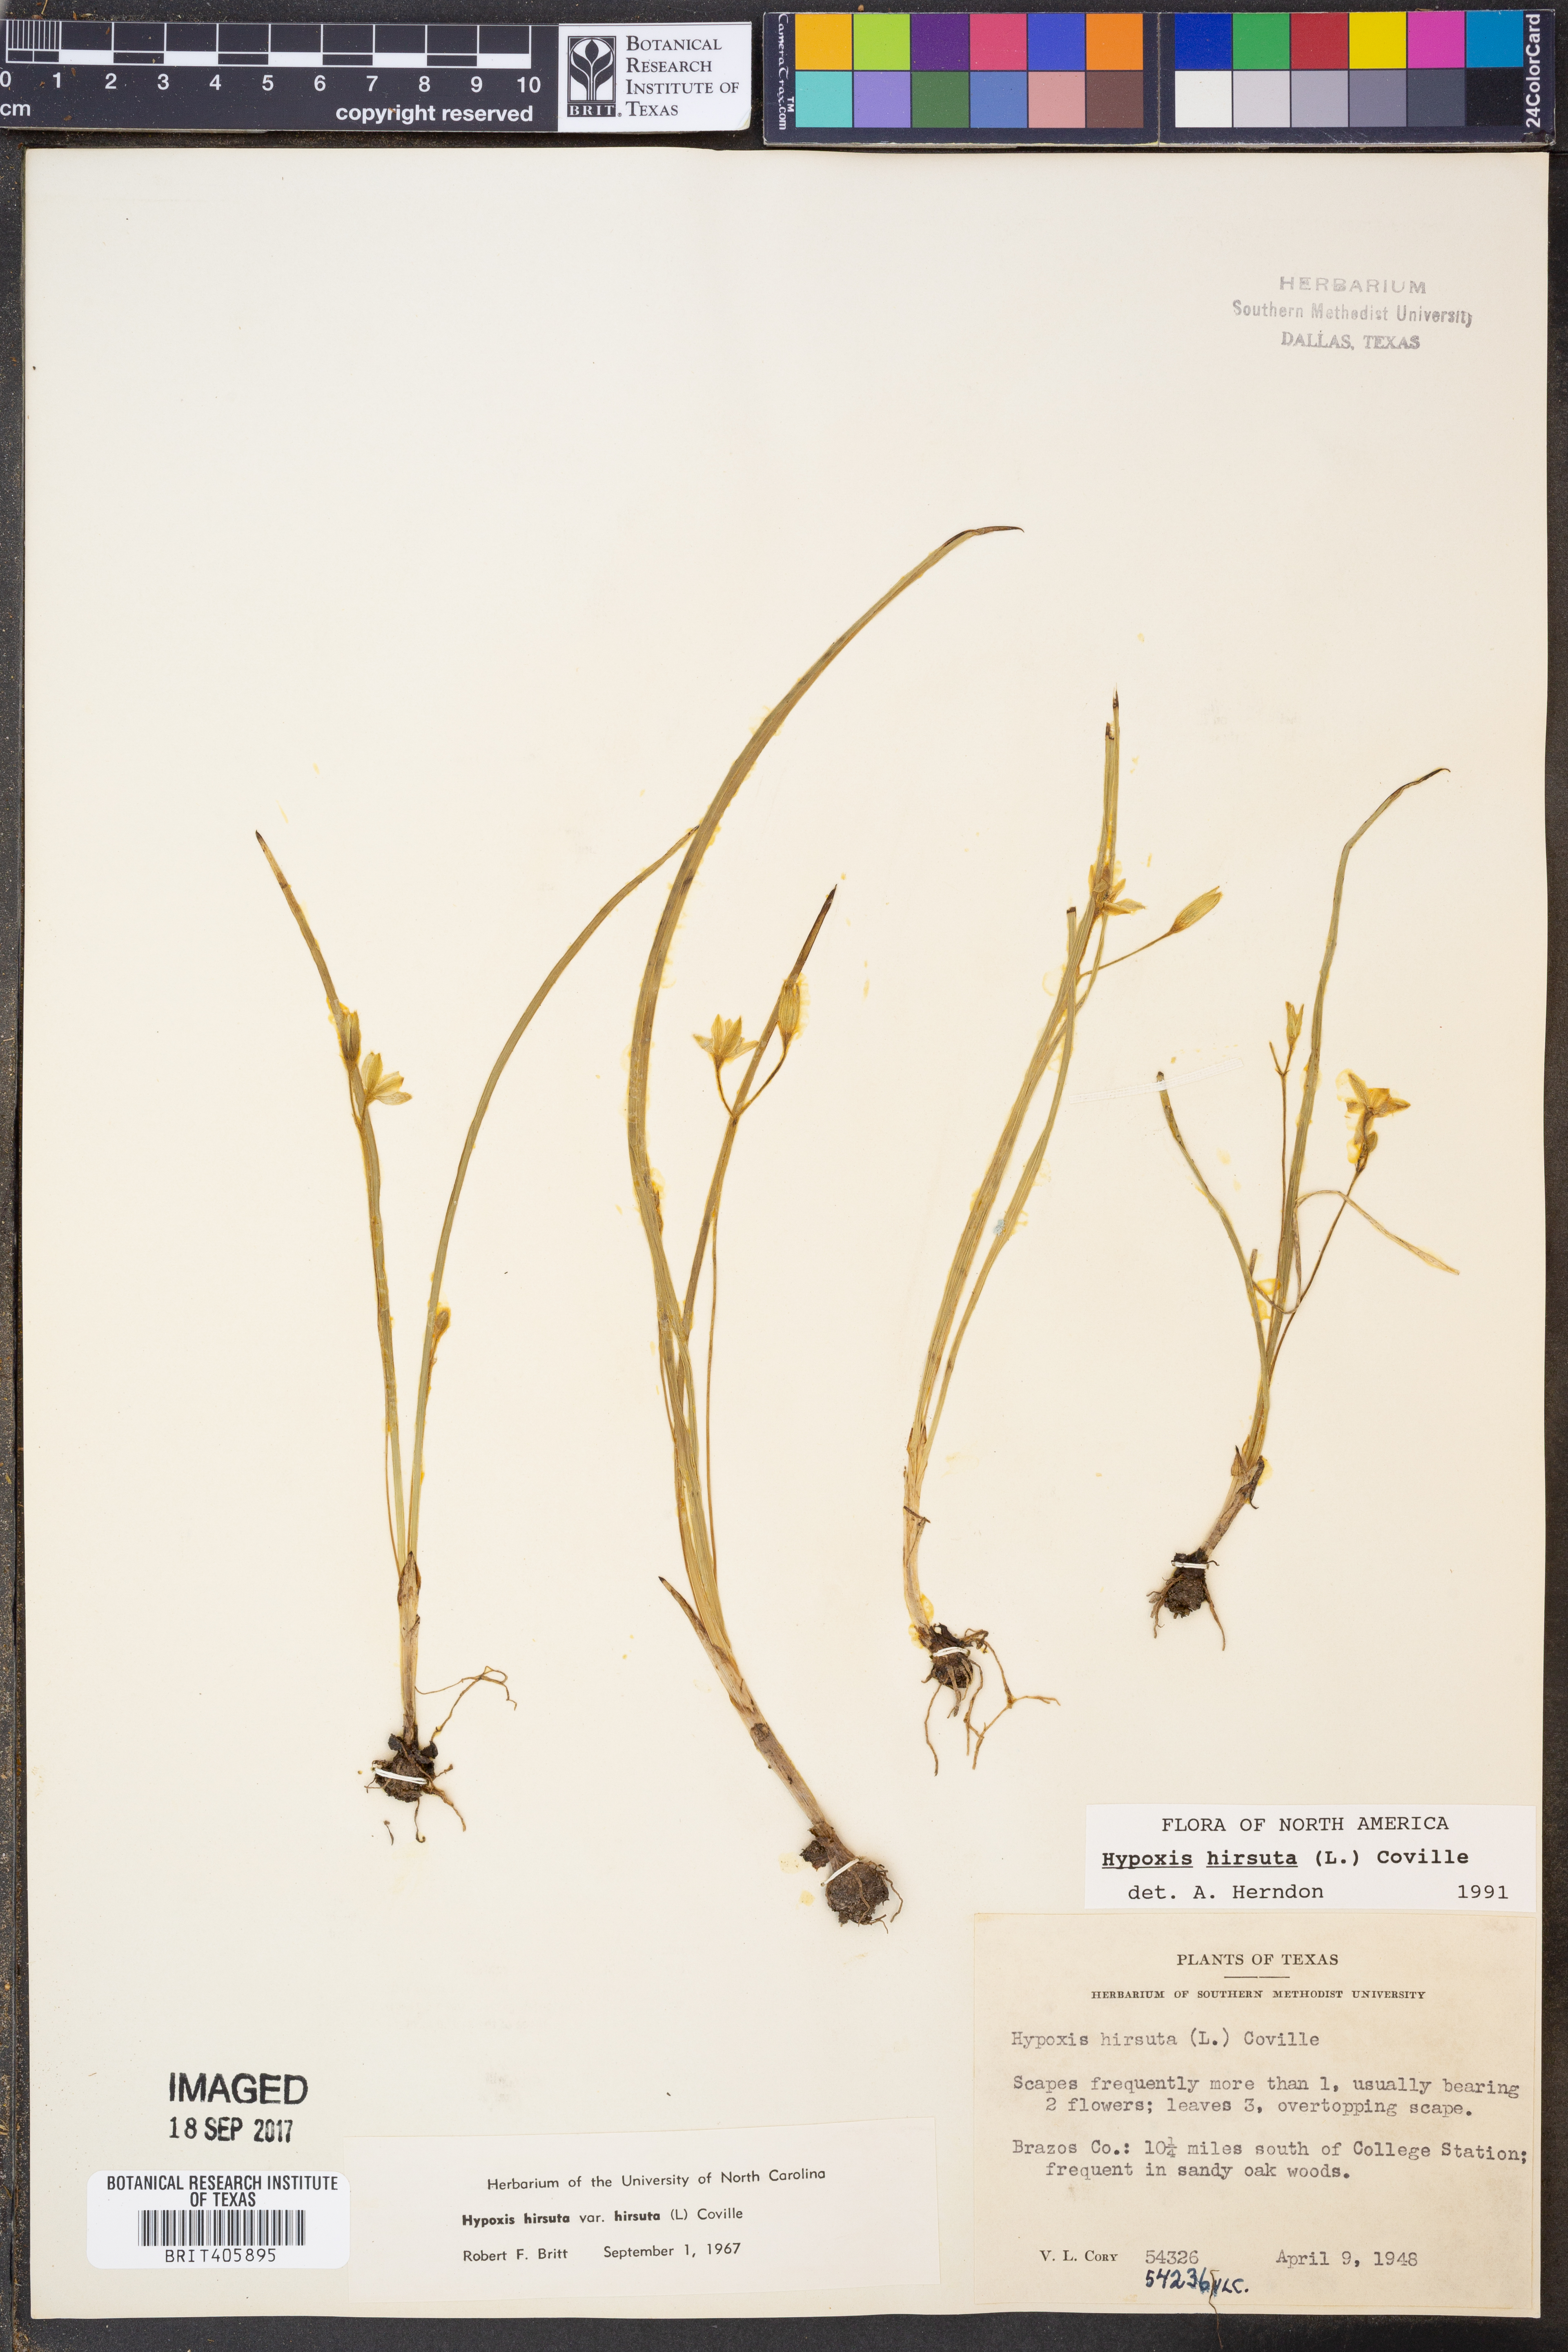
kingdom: Plantae
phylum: Tracheophyta
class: Liliopsida
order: Asparagales
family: Hypoxidaceae
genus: Hypoxis
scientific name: Hypoxis hirsuta
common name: Common goldstar
